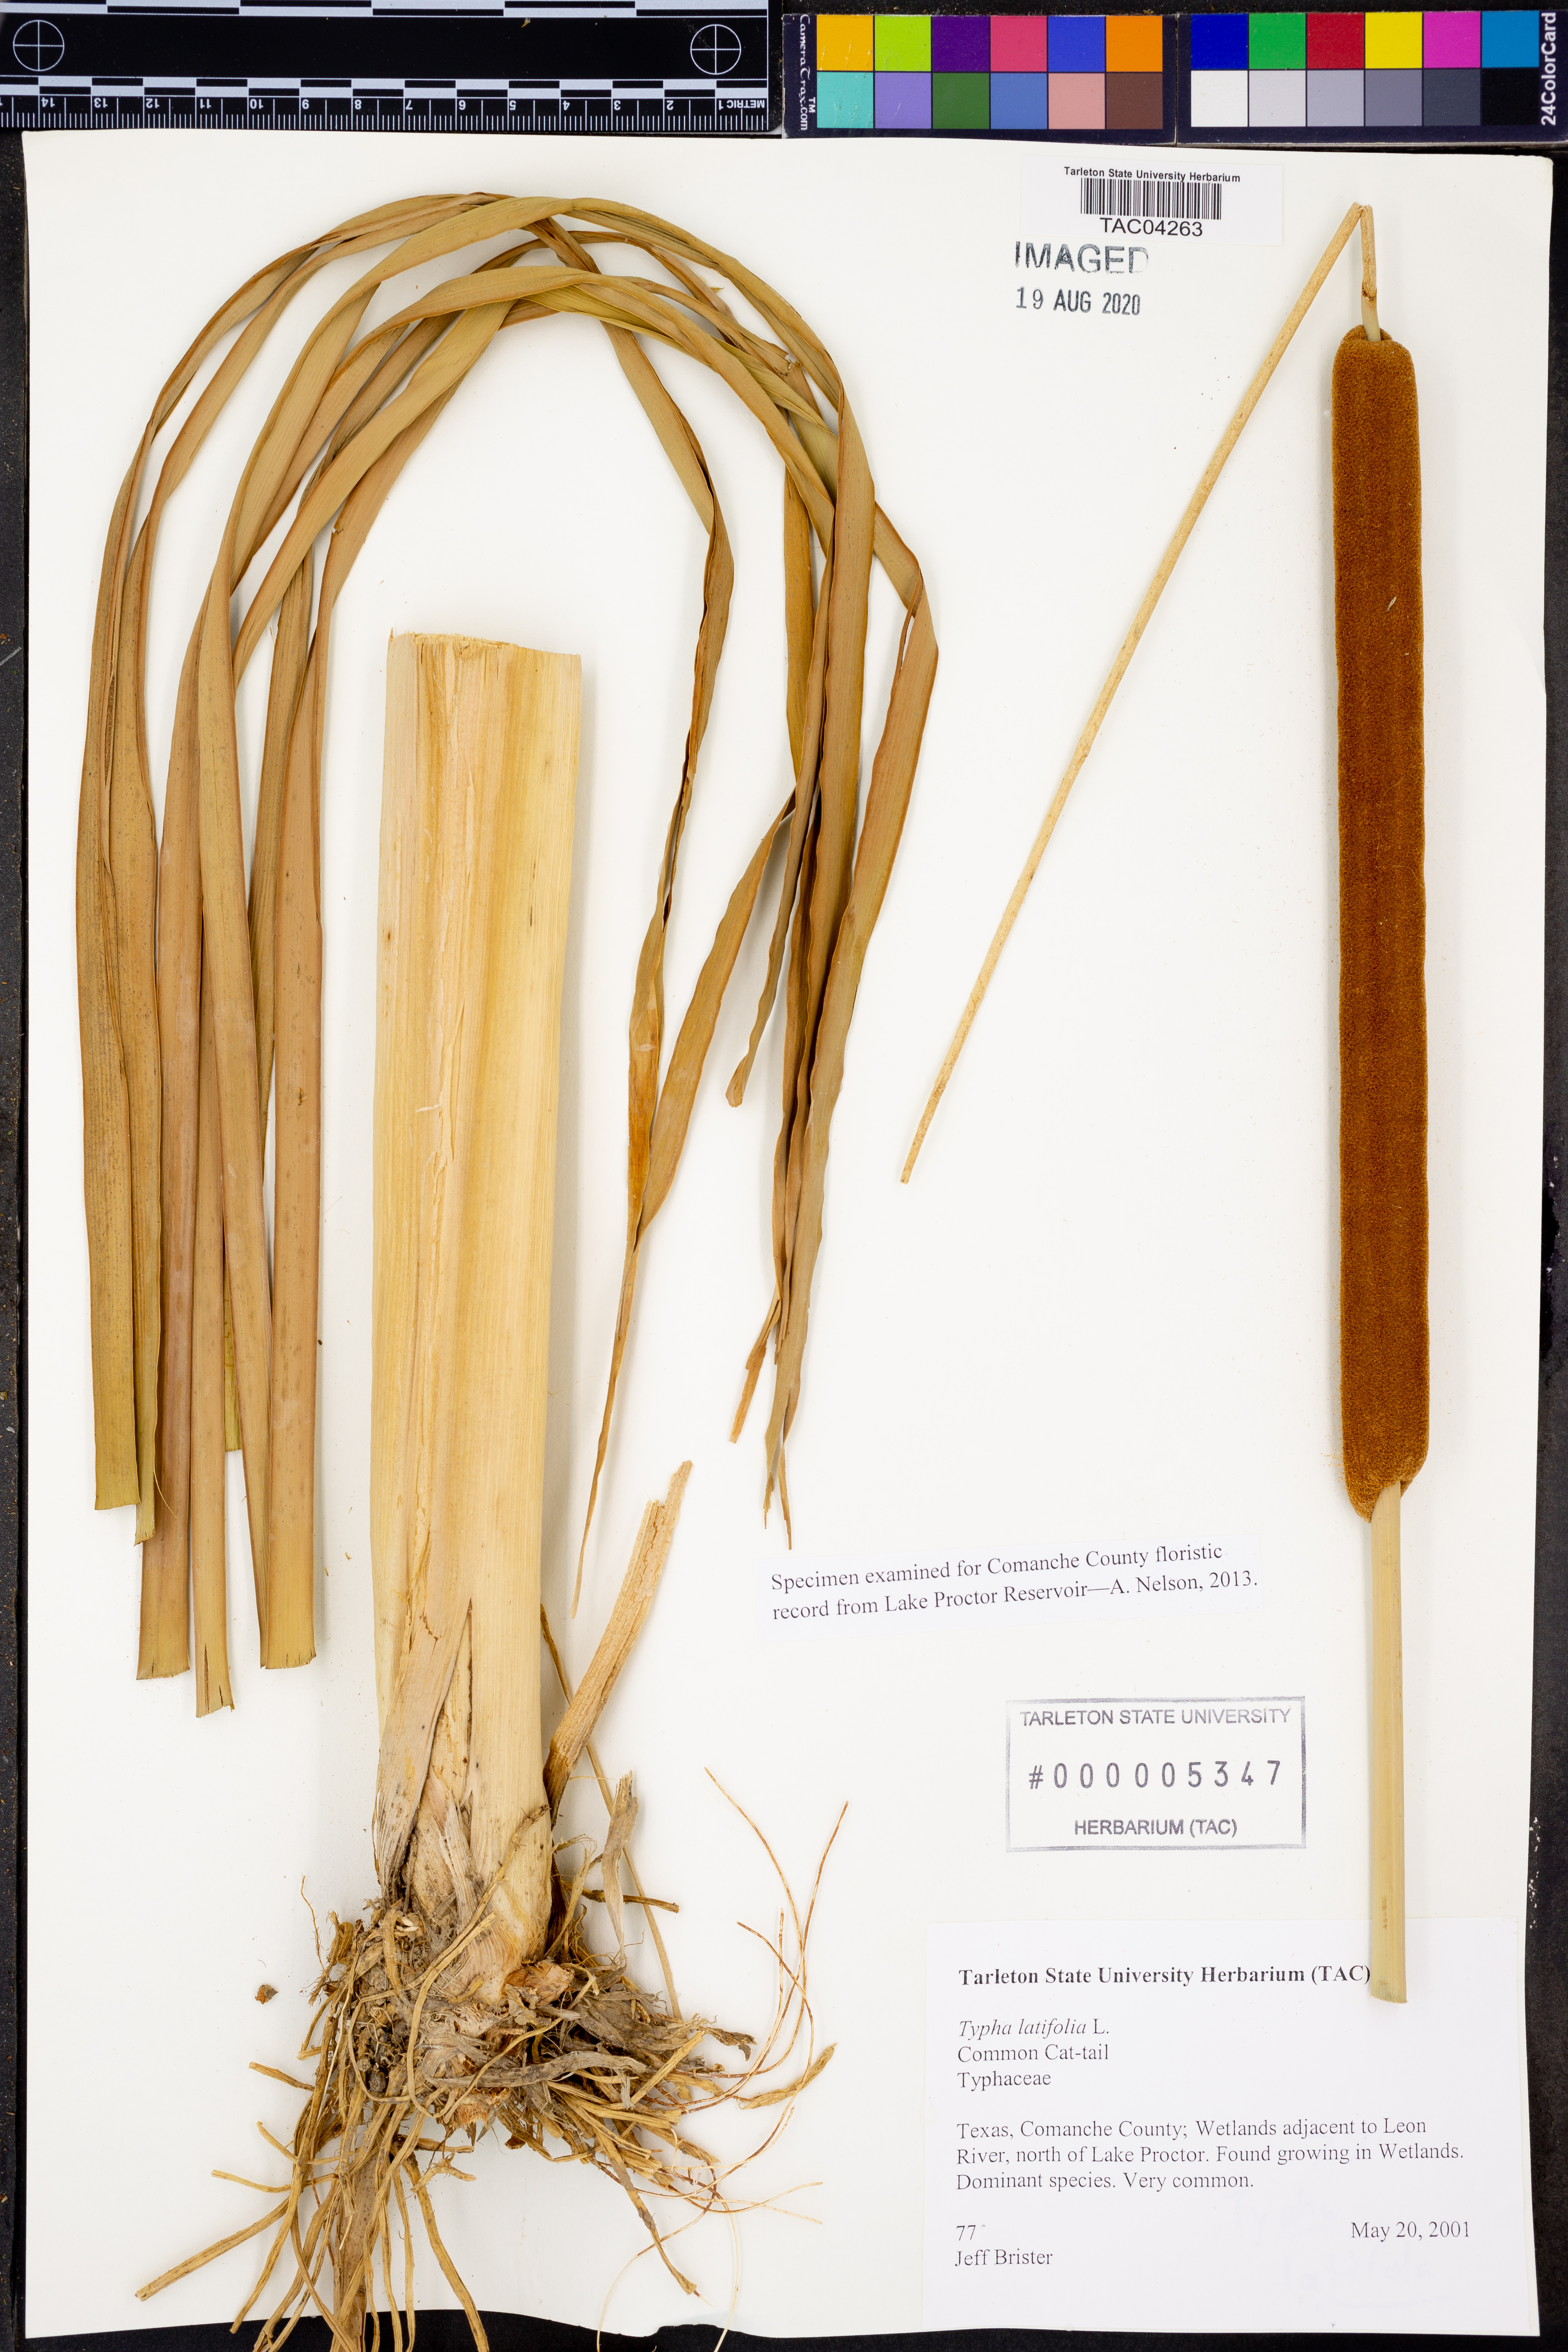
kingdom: Plantae
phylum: Tracheophyta
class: Liliopsida
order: Poales
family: Typhaceae
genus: Typha
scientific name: Typha latifolia
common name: Broadleaf cattail
